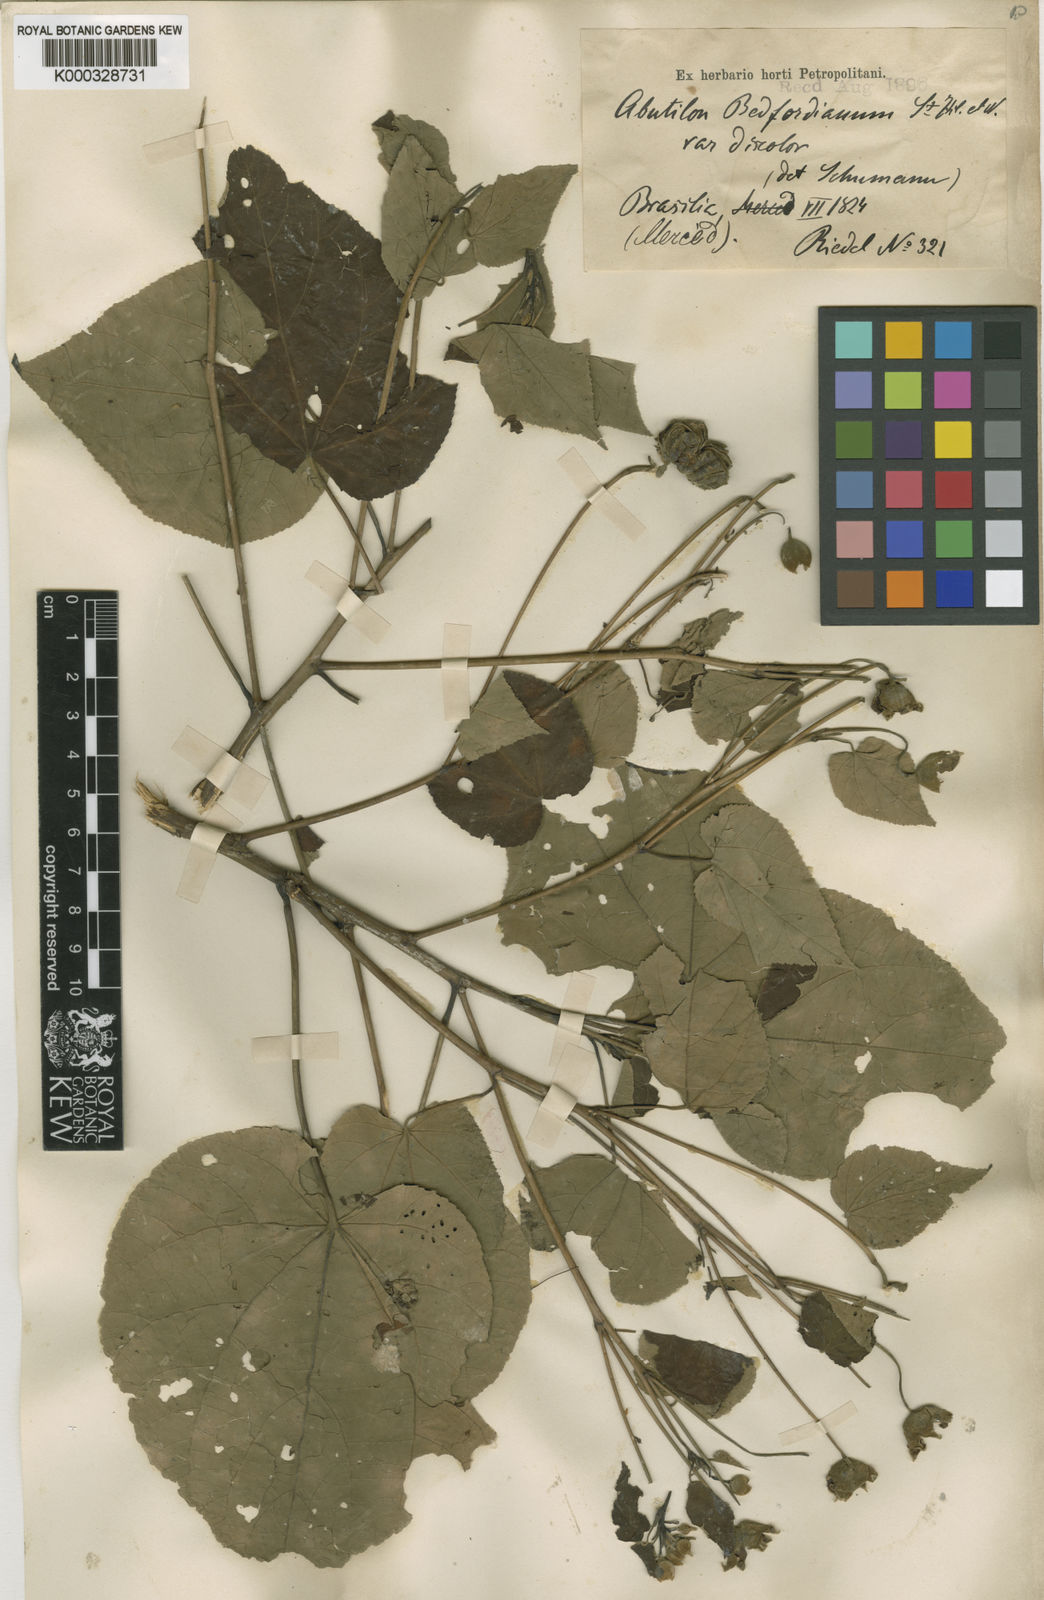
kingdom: Plantae
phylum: Tracheophyta
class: Magnoliopsida
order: Malvales
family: Malvaceae
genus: Callianthe
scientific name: Callianthe bedfordiana
